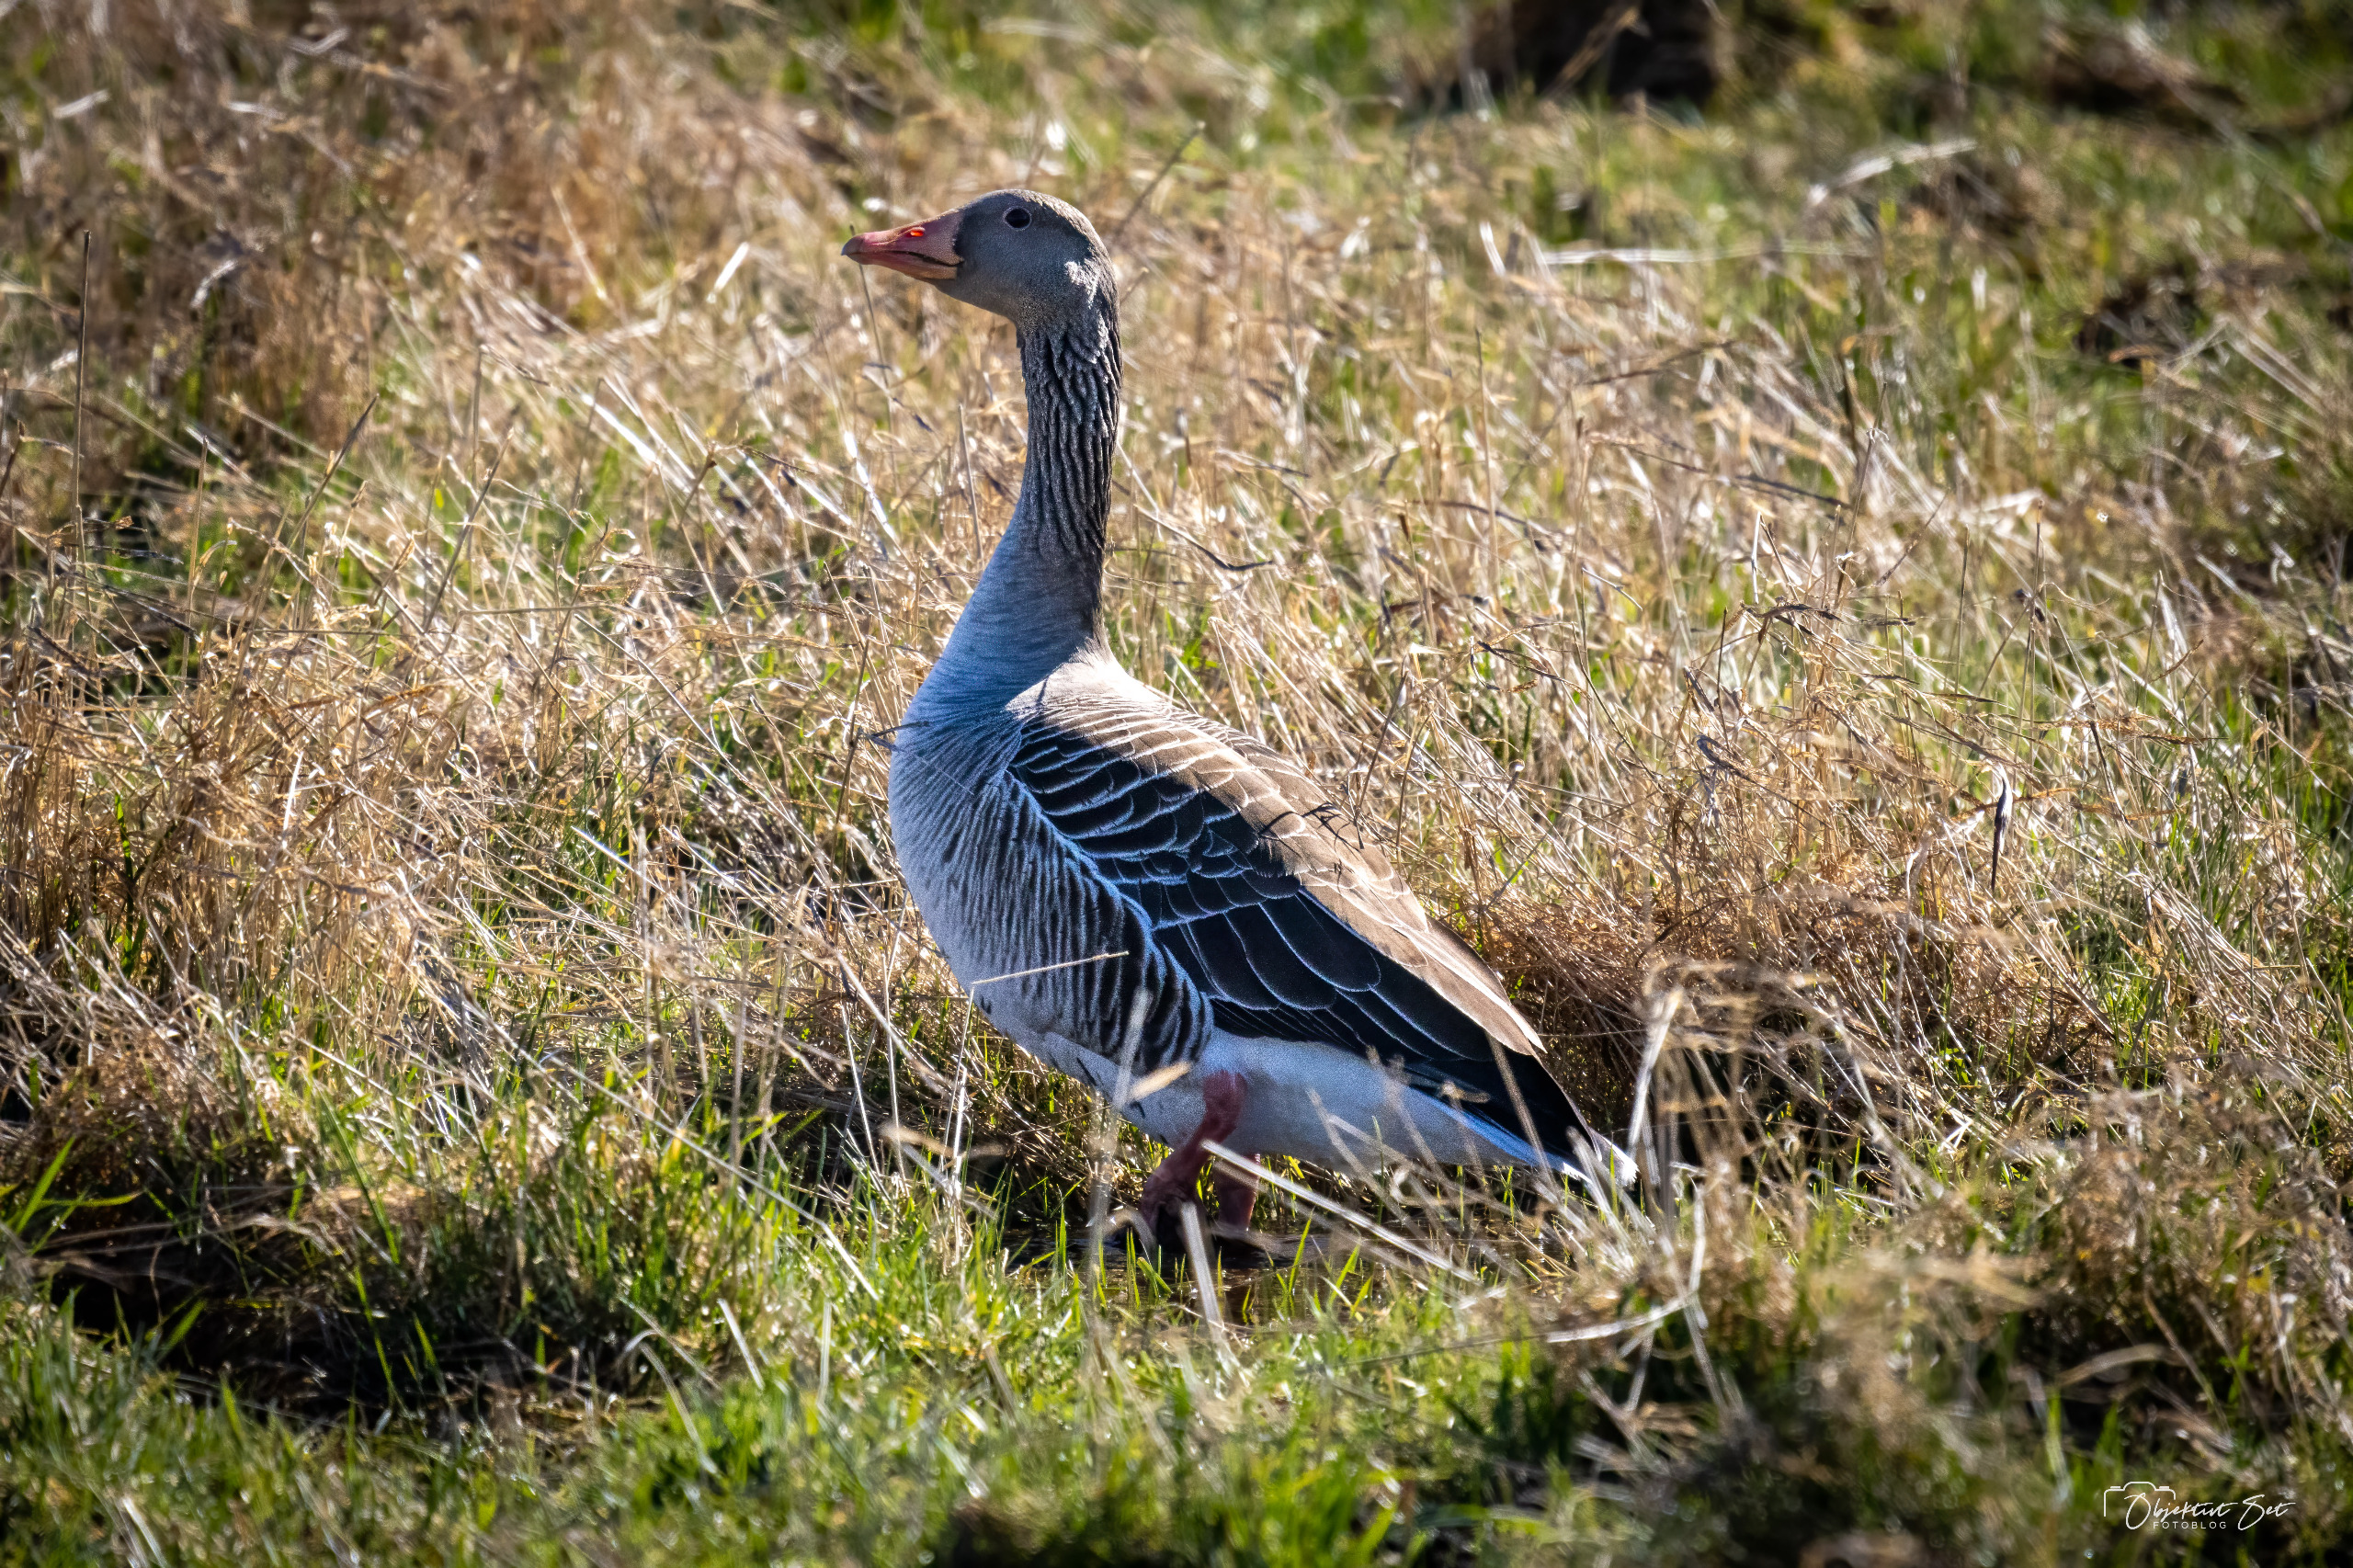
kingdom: Animalia
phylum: Chordata
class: Aves
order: Anseriformes
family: Anatidae
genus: Anser
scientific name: Anser anser
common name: Grågås
